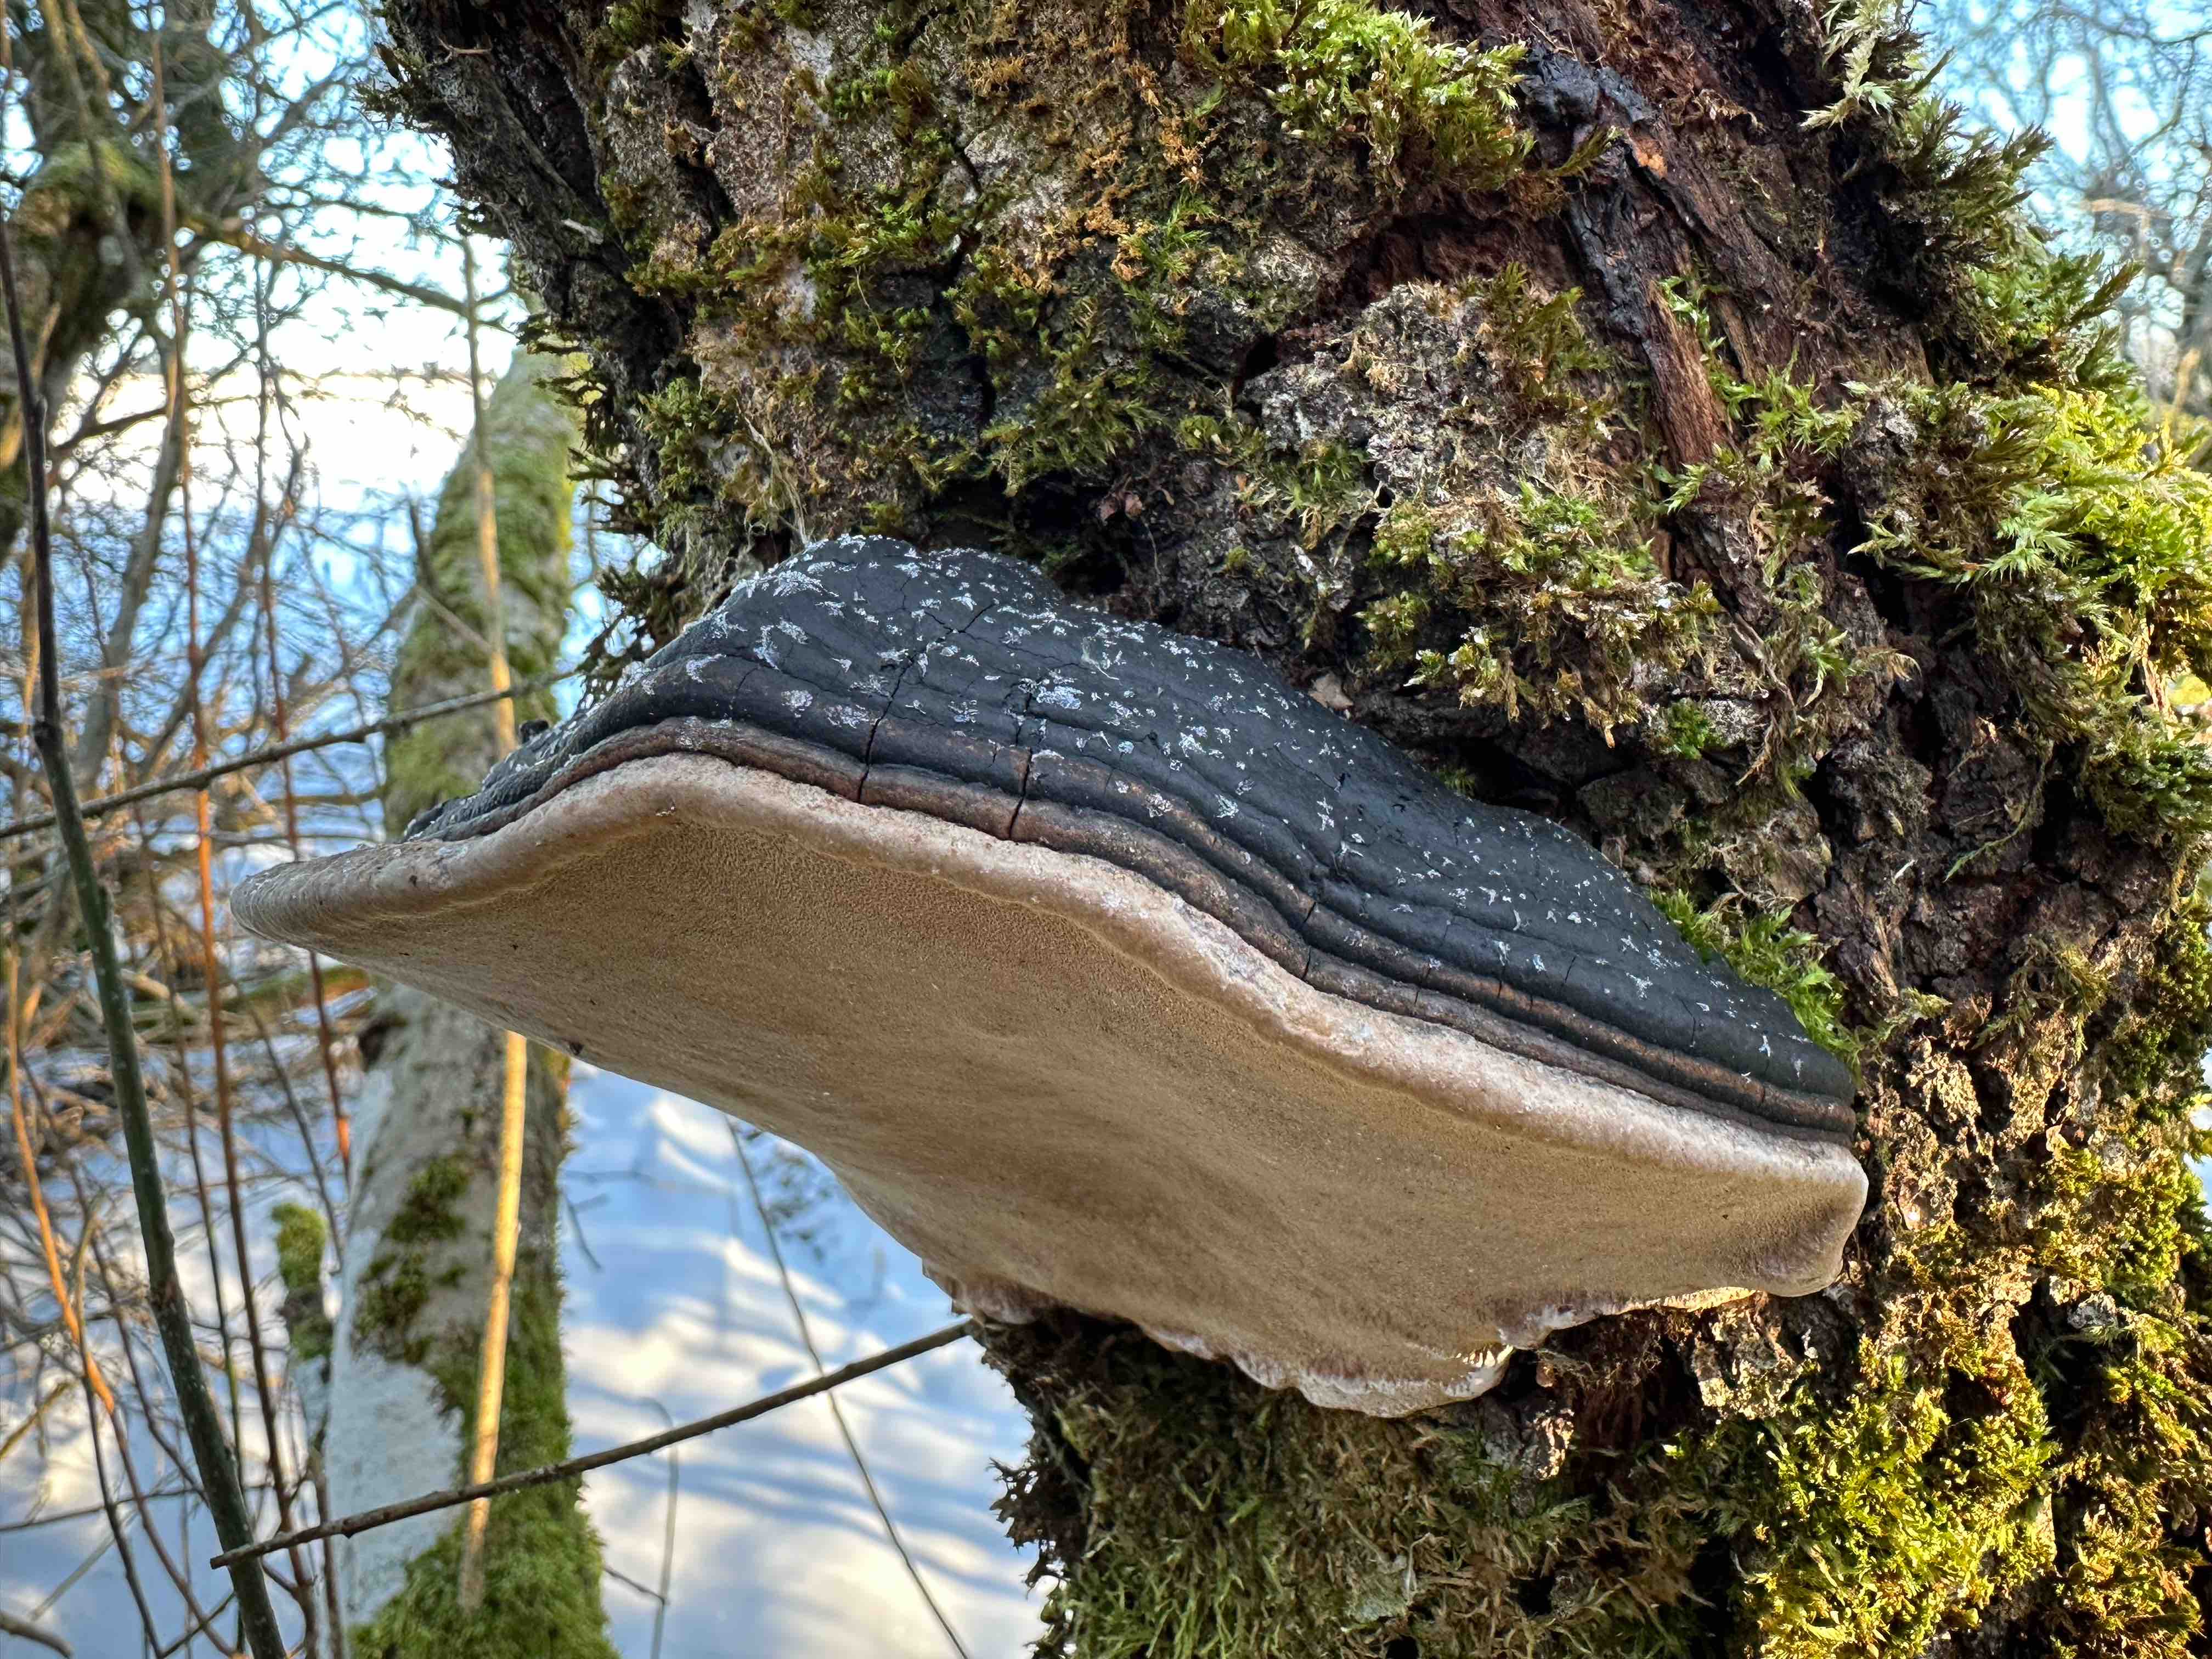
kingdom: Fungi
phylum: Basidiomycota
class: Agaricomycetes
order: Hymenochaetales
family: Hymenochaetaceae
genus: Phellinus
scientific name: Phellinus igniarius
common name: almindelig ildporesvamp
